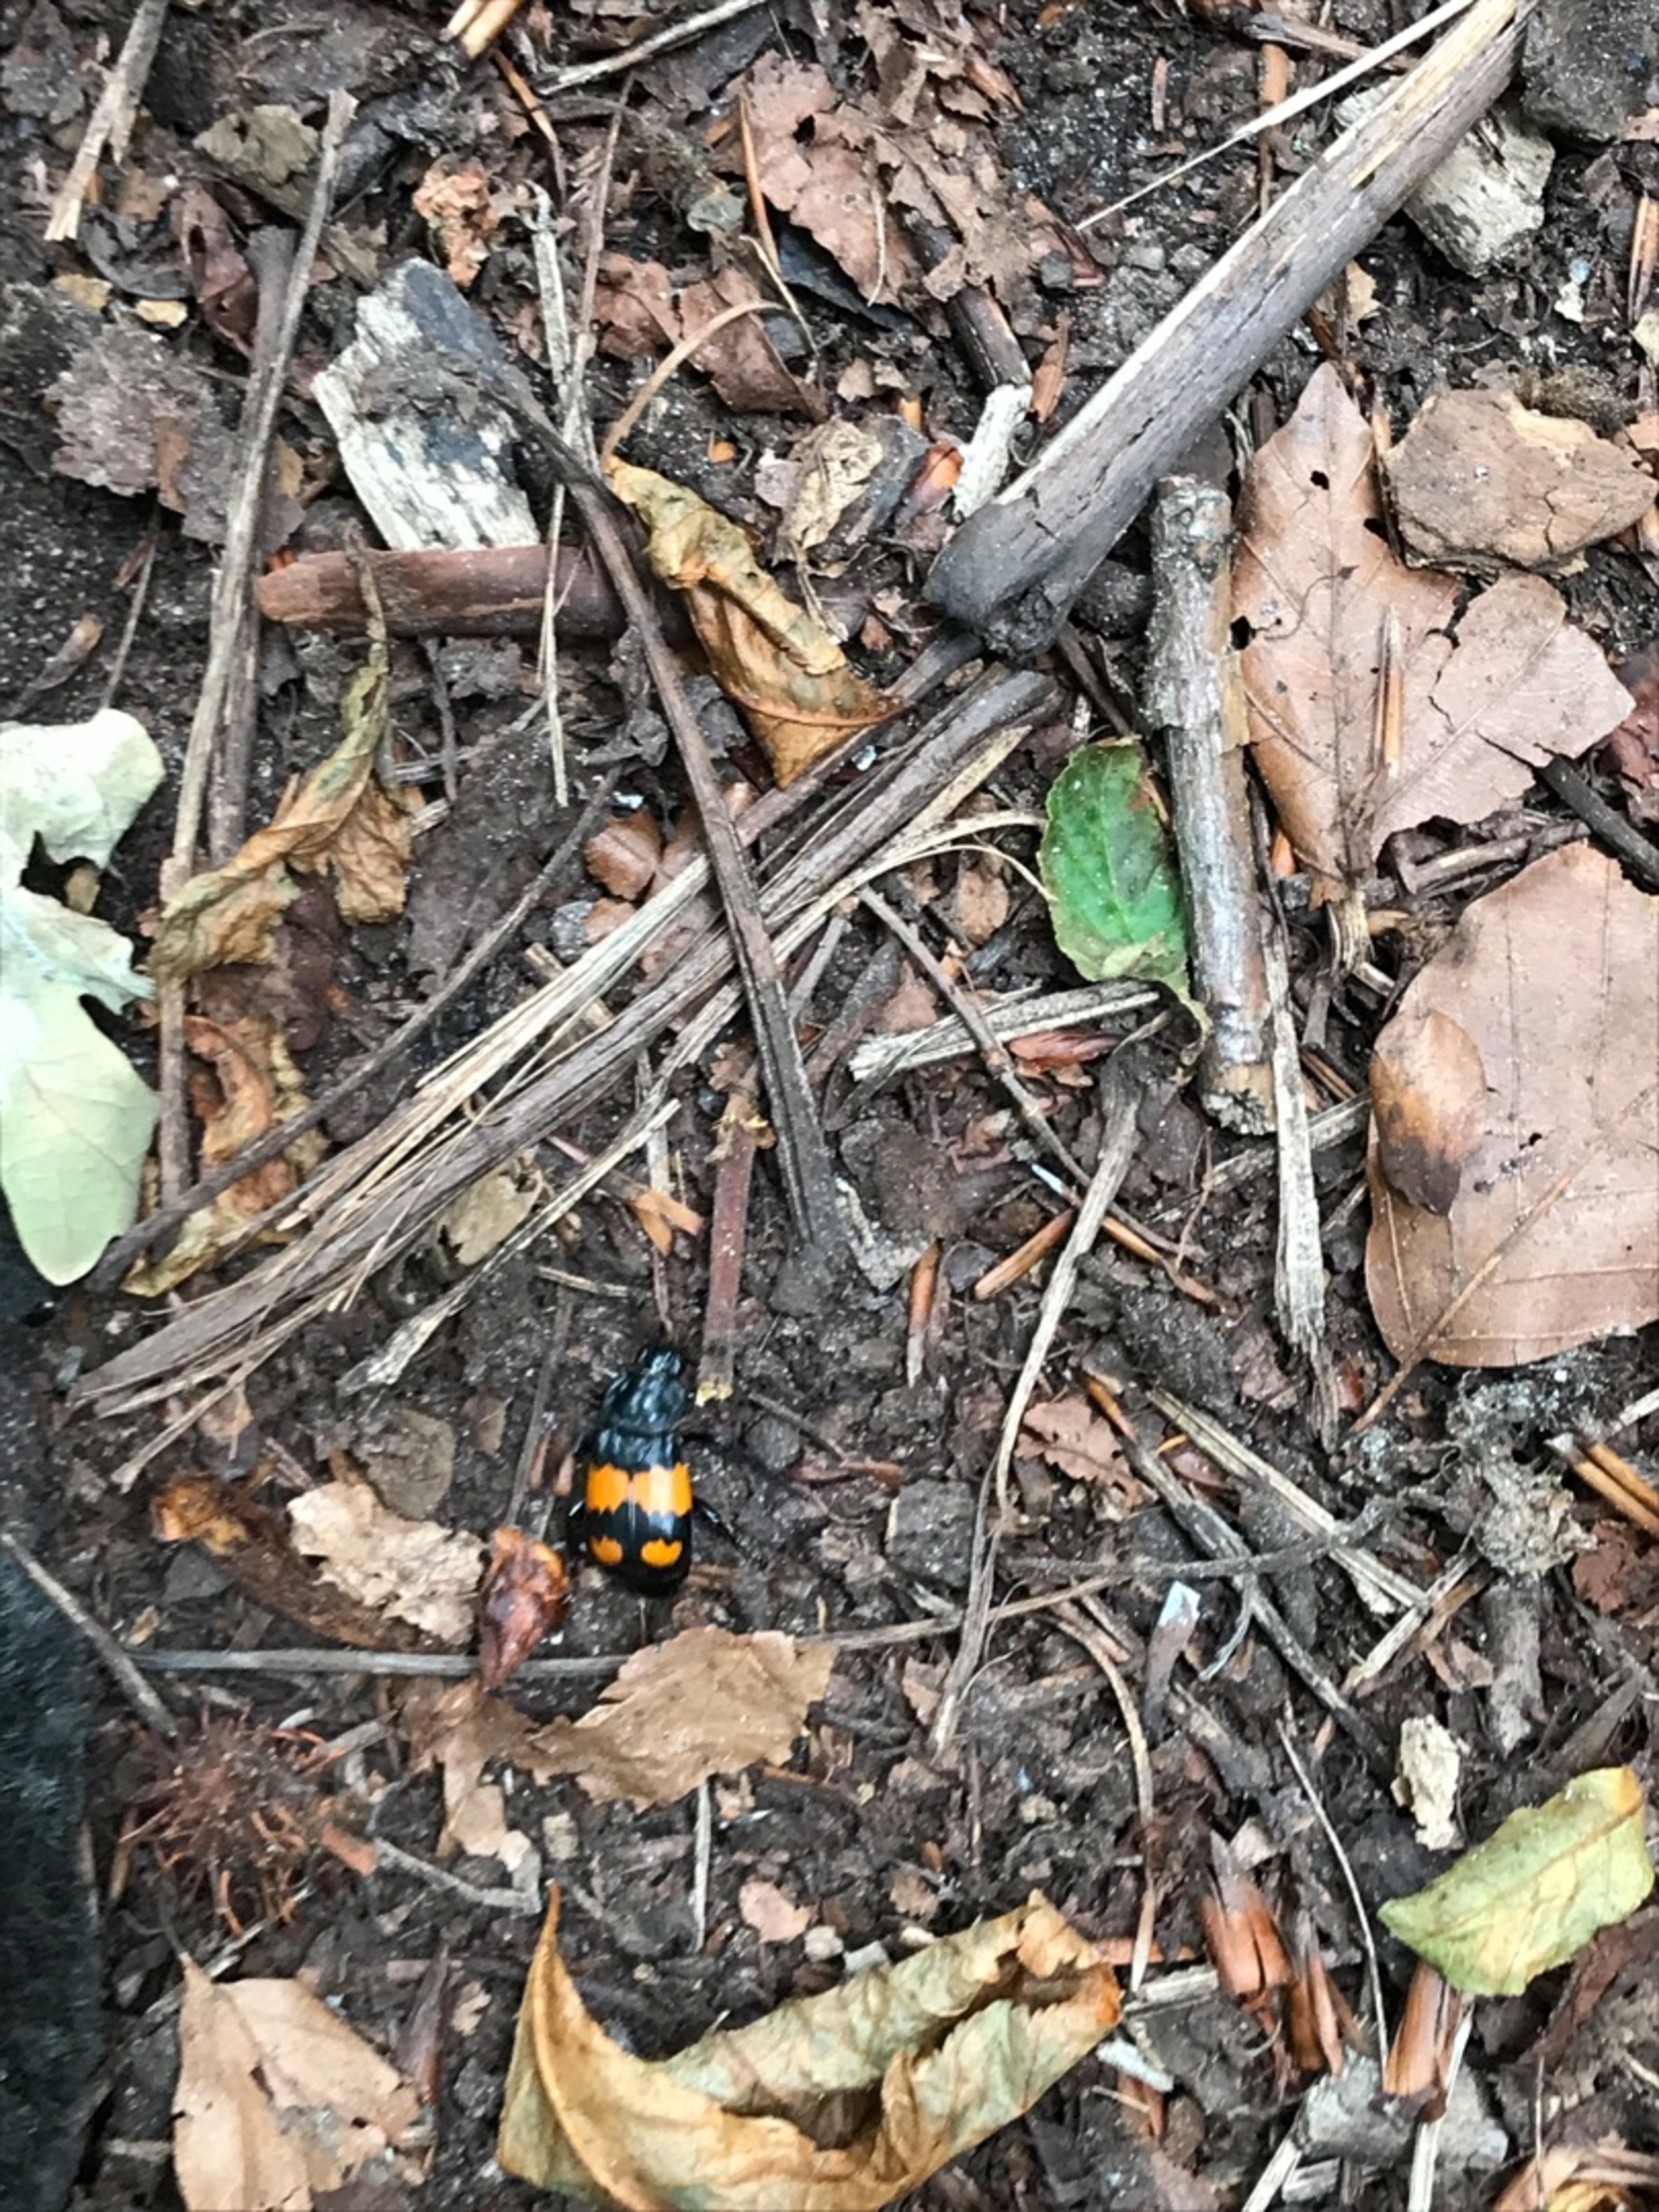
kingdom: Animalia
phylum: Arthropoda
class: Insecta
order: Coleoptera
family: Staphylinidae
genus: Nicrophorus
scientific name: Nicrophorus vespilloides
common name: Sortkøllet ådselgraver
